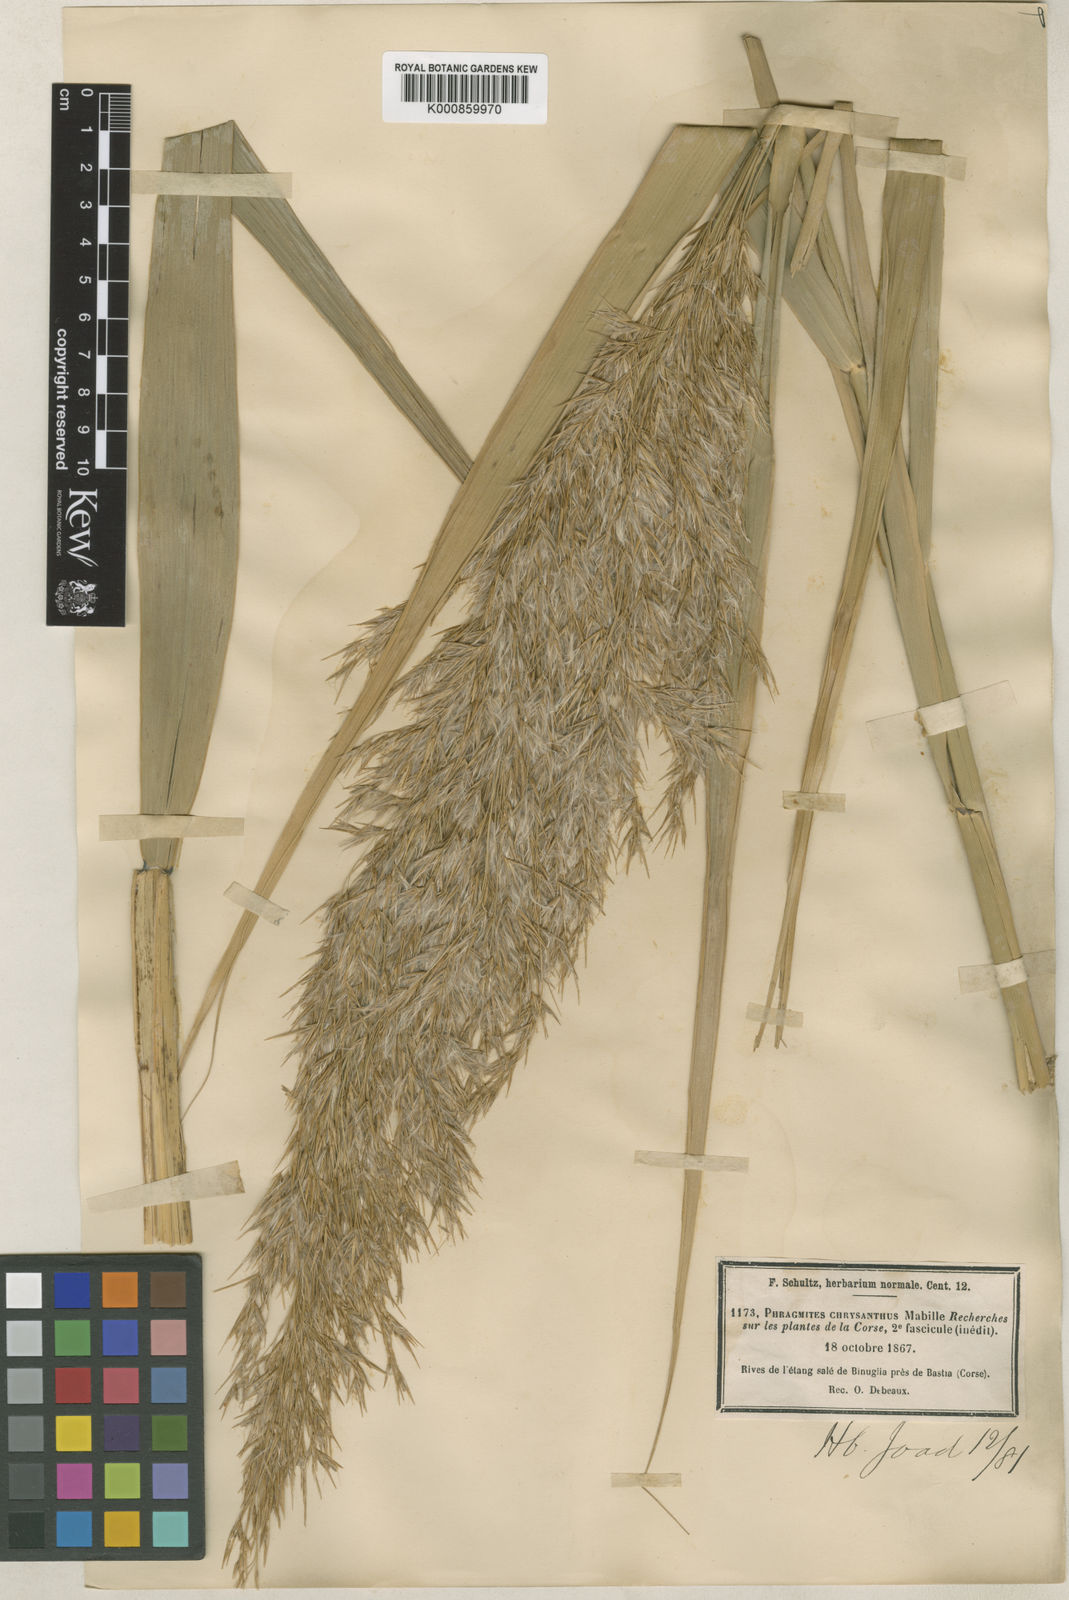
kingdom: Plantae
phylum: Tracheophyta
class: Liliopsida
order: Poales
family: Poaceae
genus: Phragmites
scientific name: Phragmites australis
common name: Common reed
